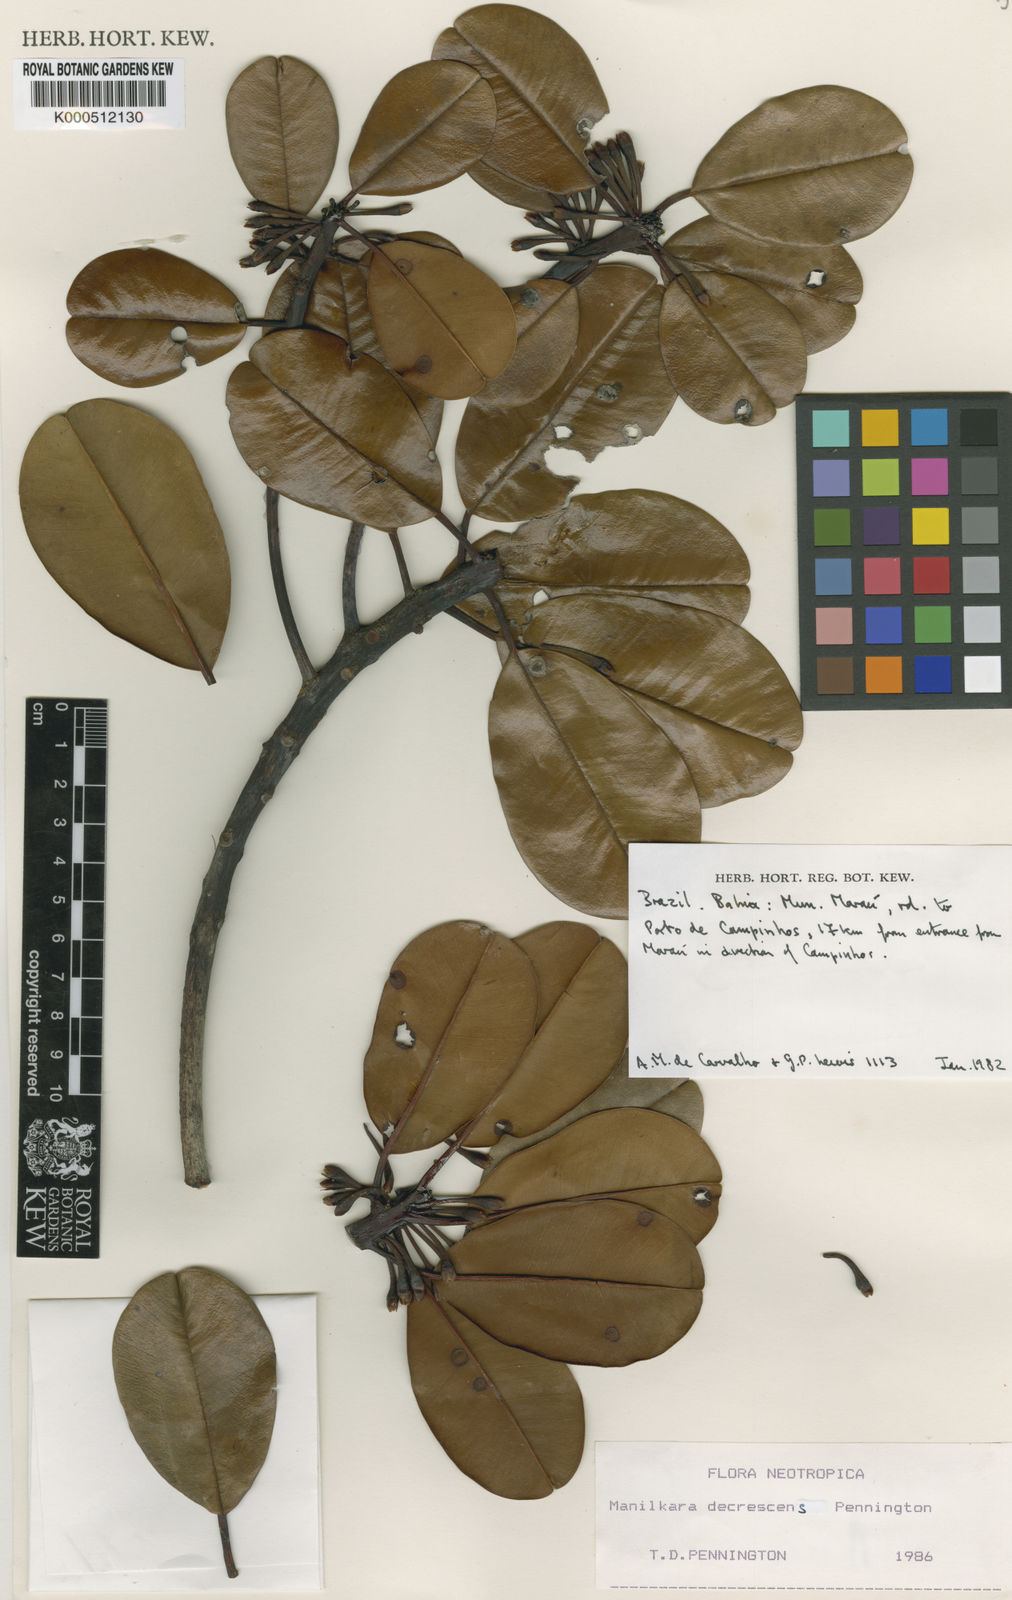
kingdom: Plantae
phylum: Tracheophyta
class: Magnoliopsida
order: Ericales
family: Sapotaceae
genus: Manilkara
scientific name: Manilkara decrescens
